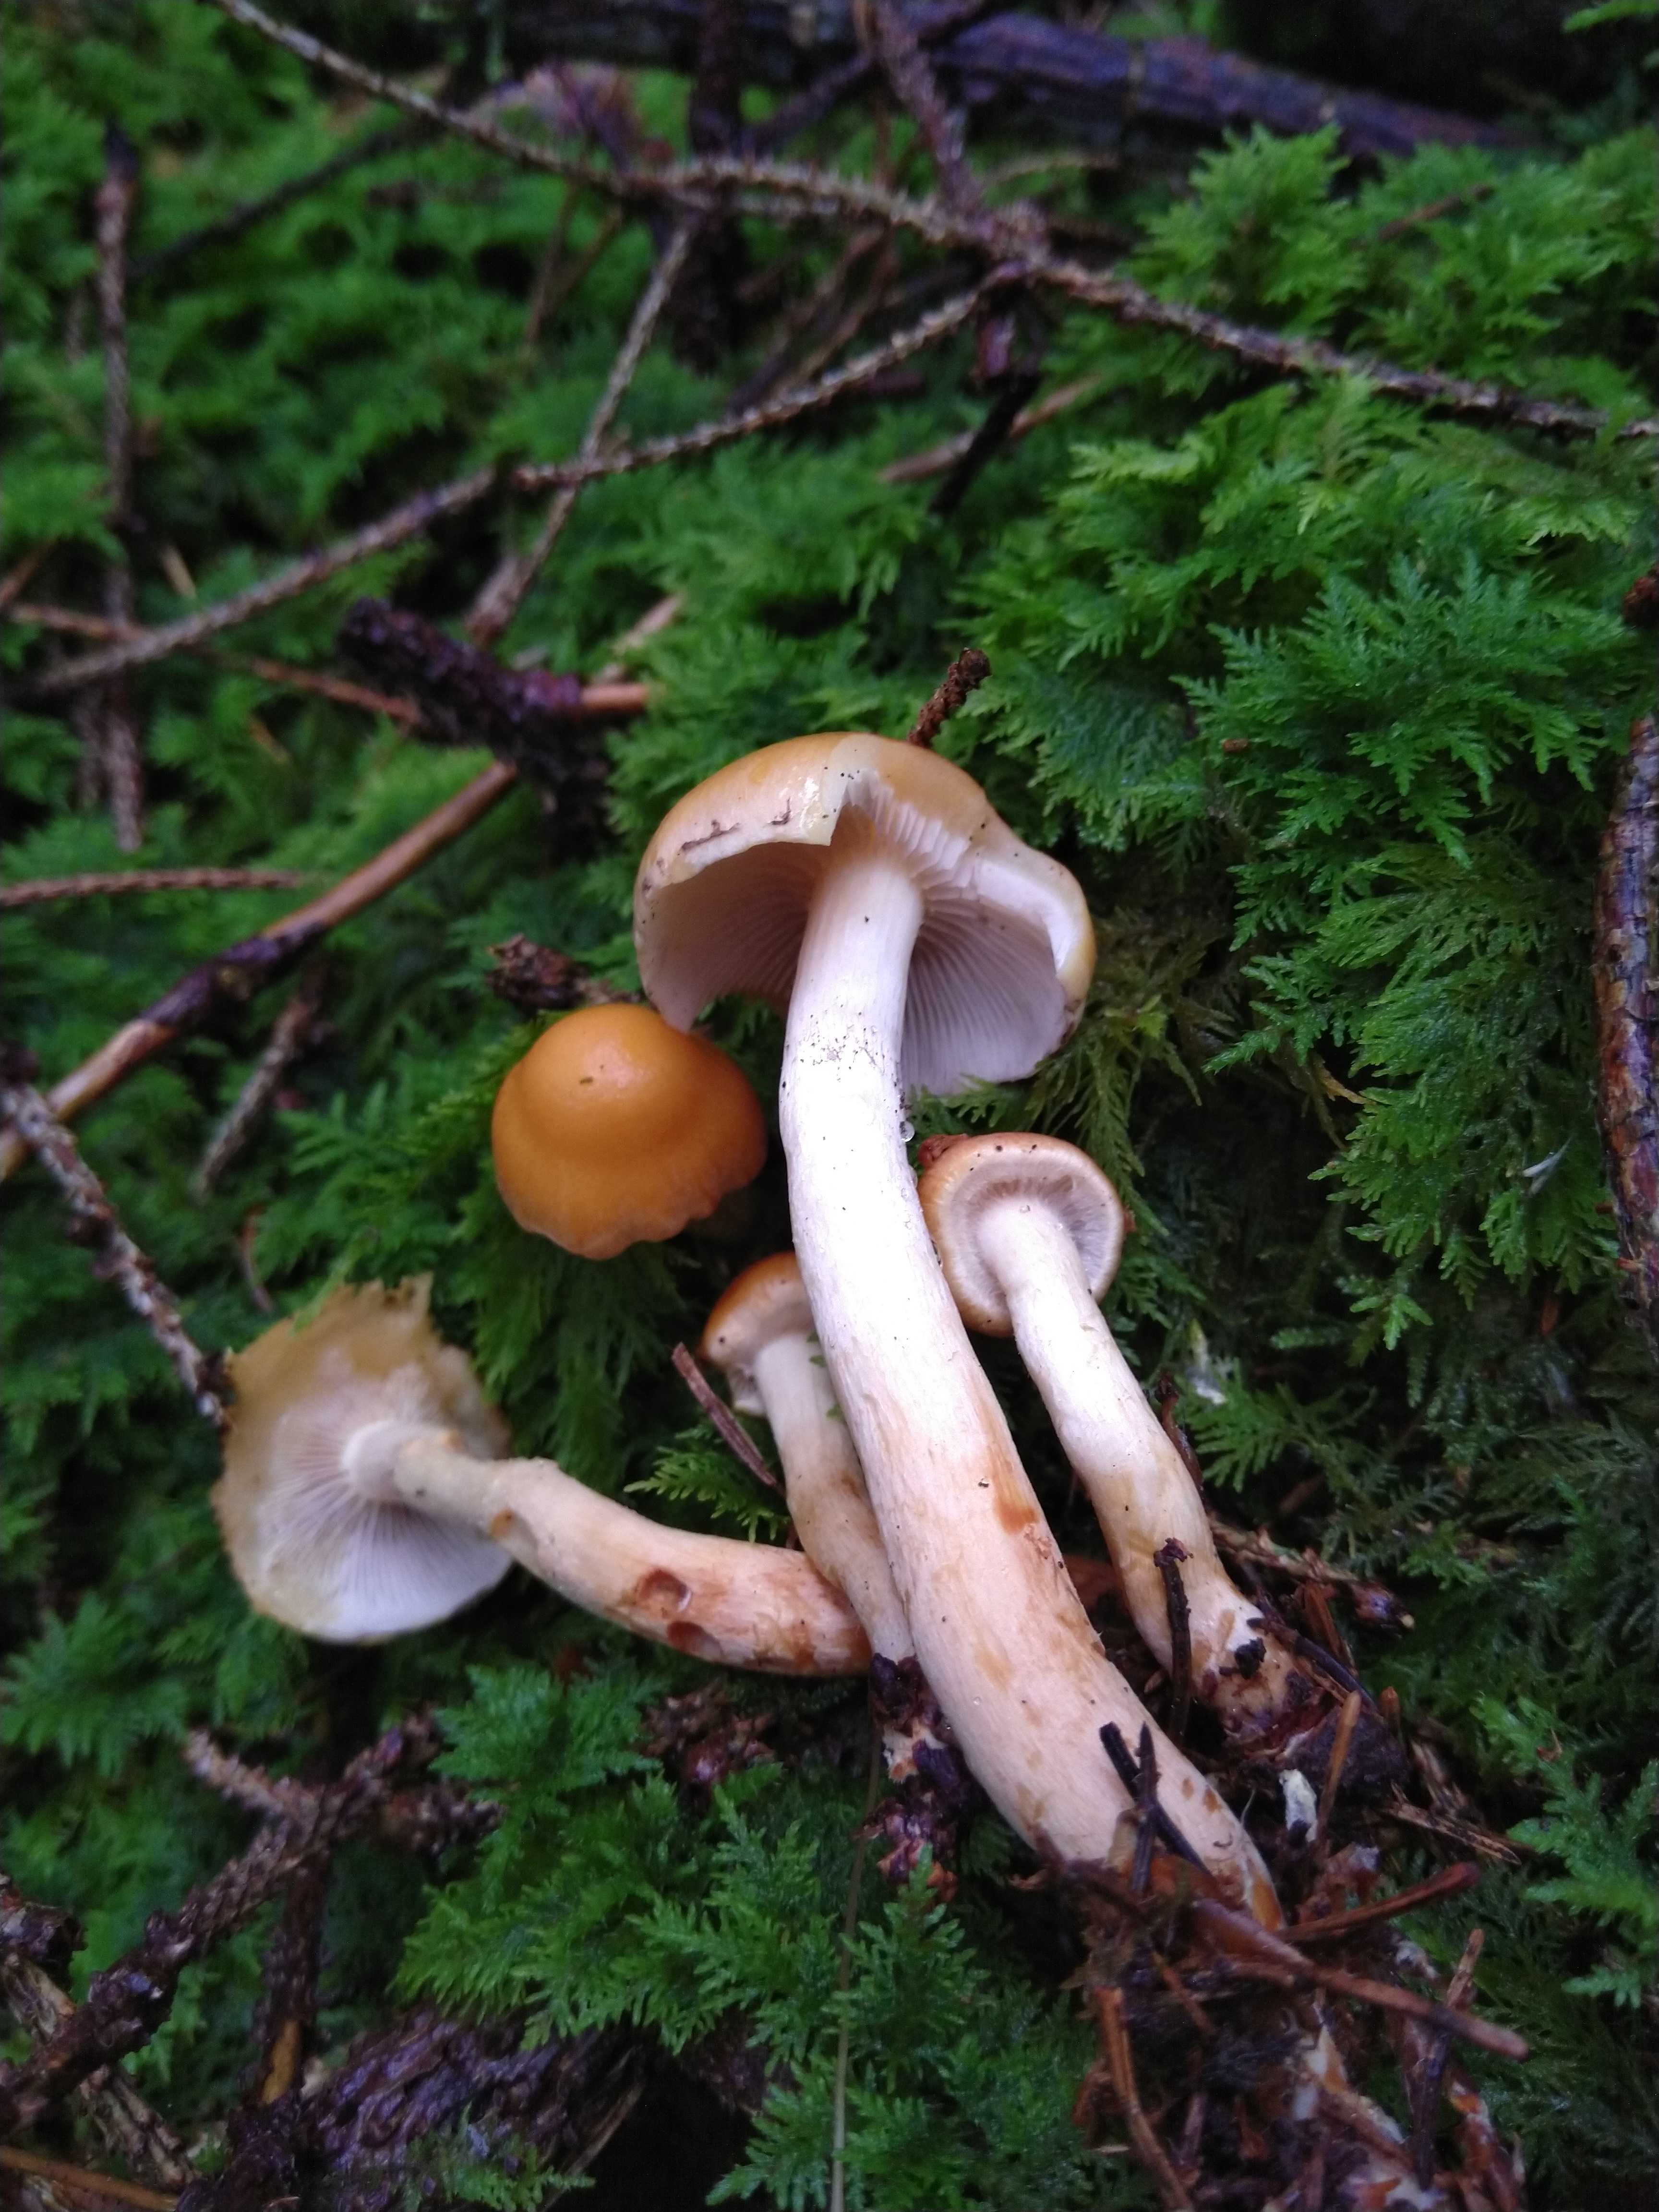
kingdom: Fungi
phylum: Basidiomycota
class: Agaricomycetes
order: Agaricales
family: Strophariaceae
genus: Hypholoma
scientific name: Hypholoma capnoides
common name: gran-svovlhat
